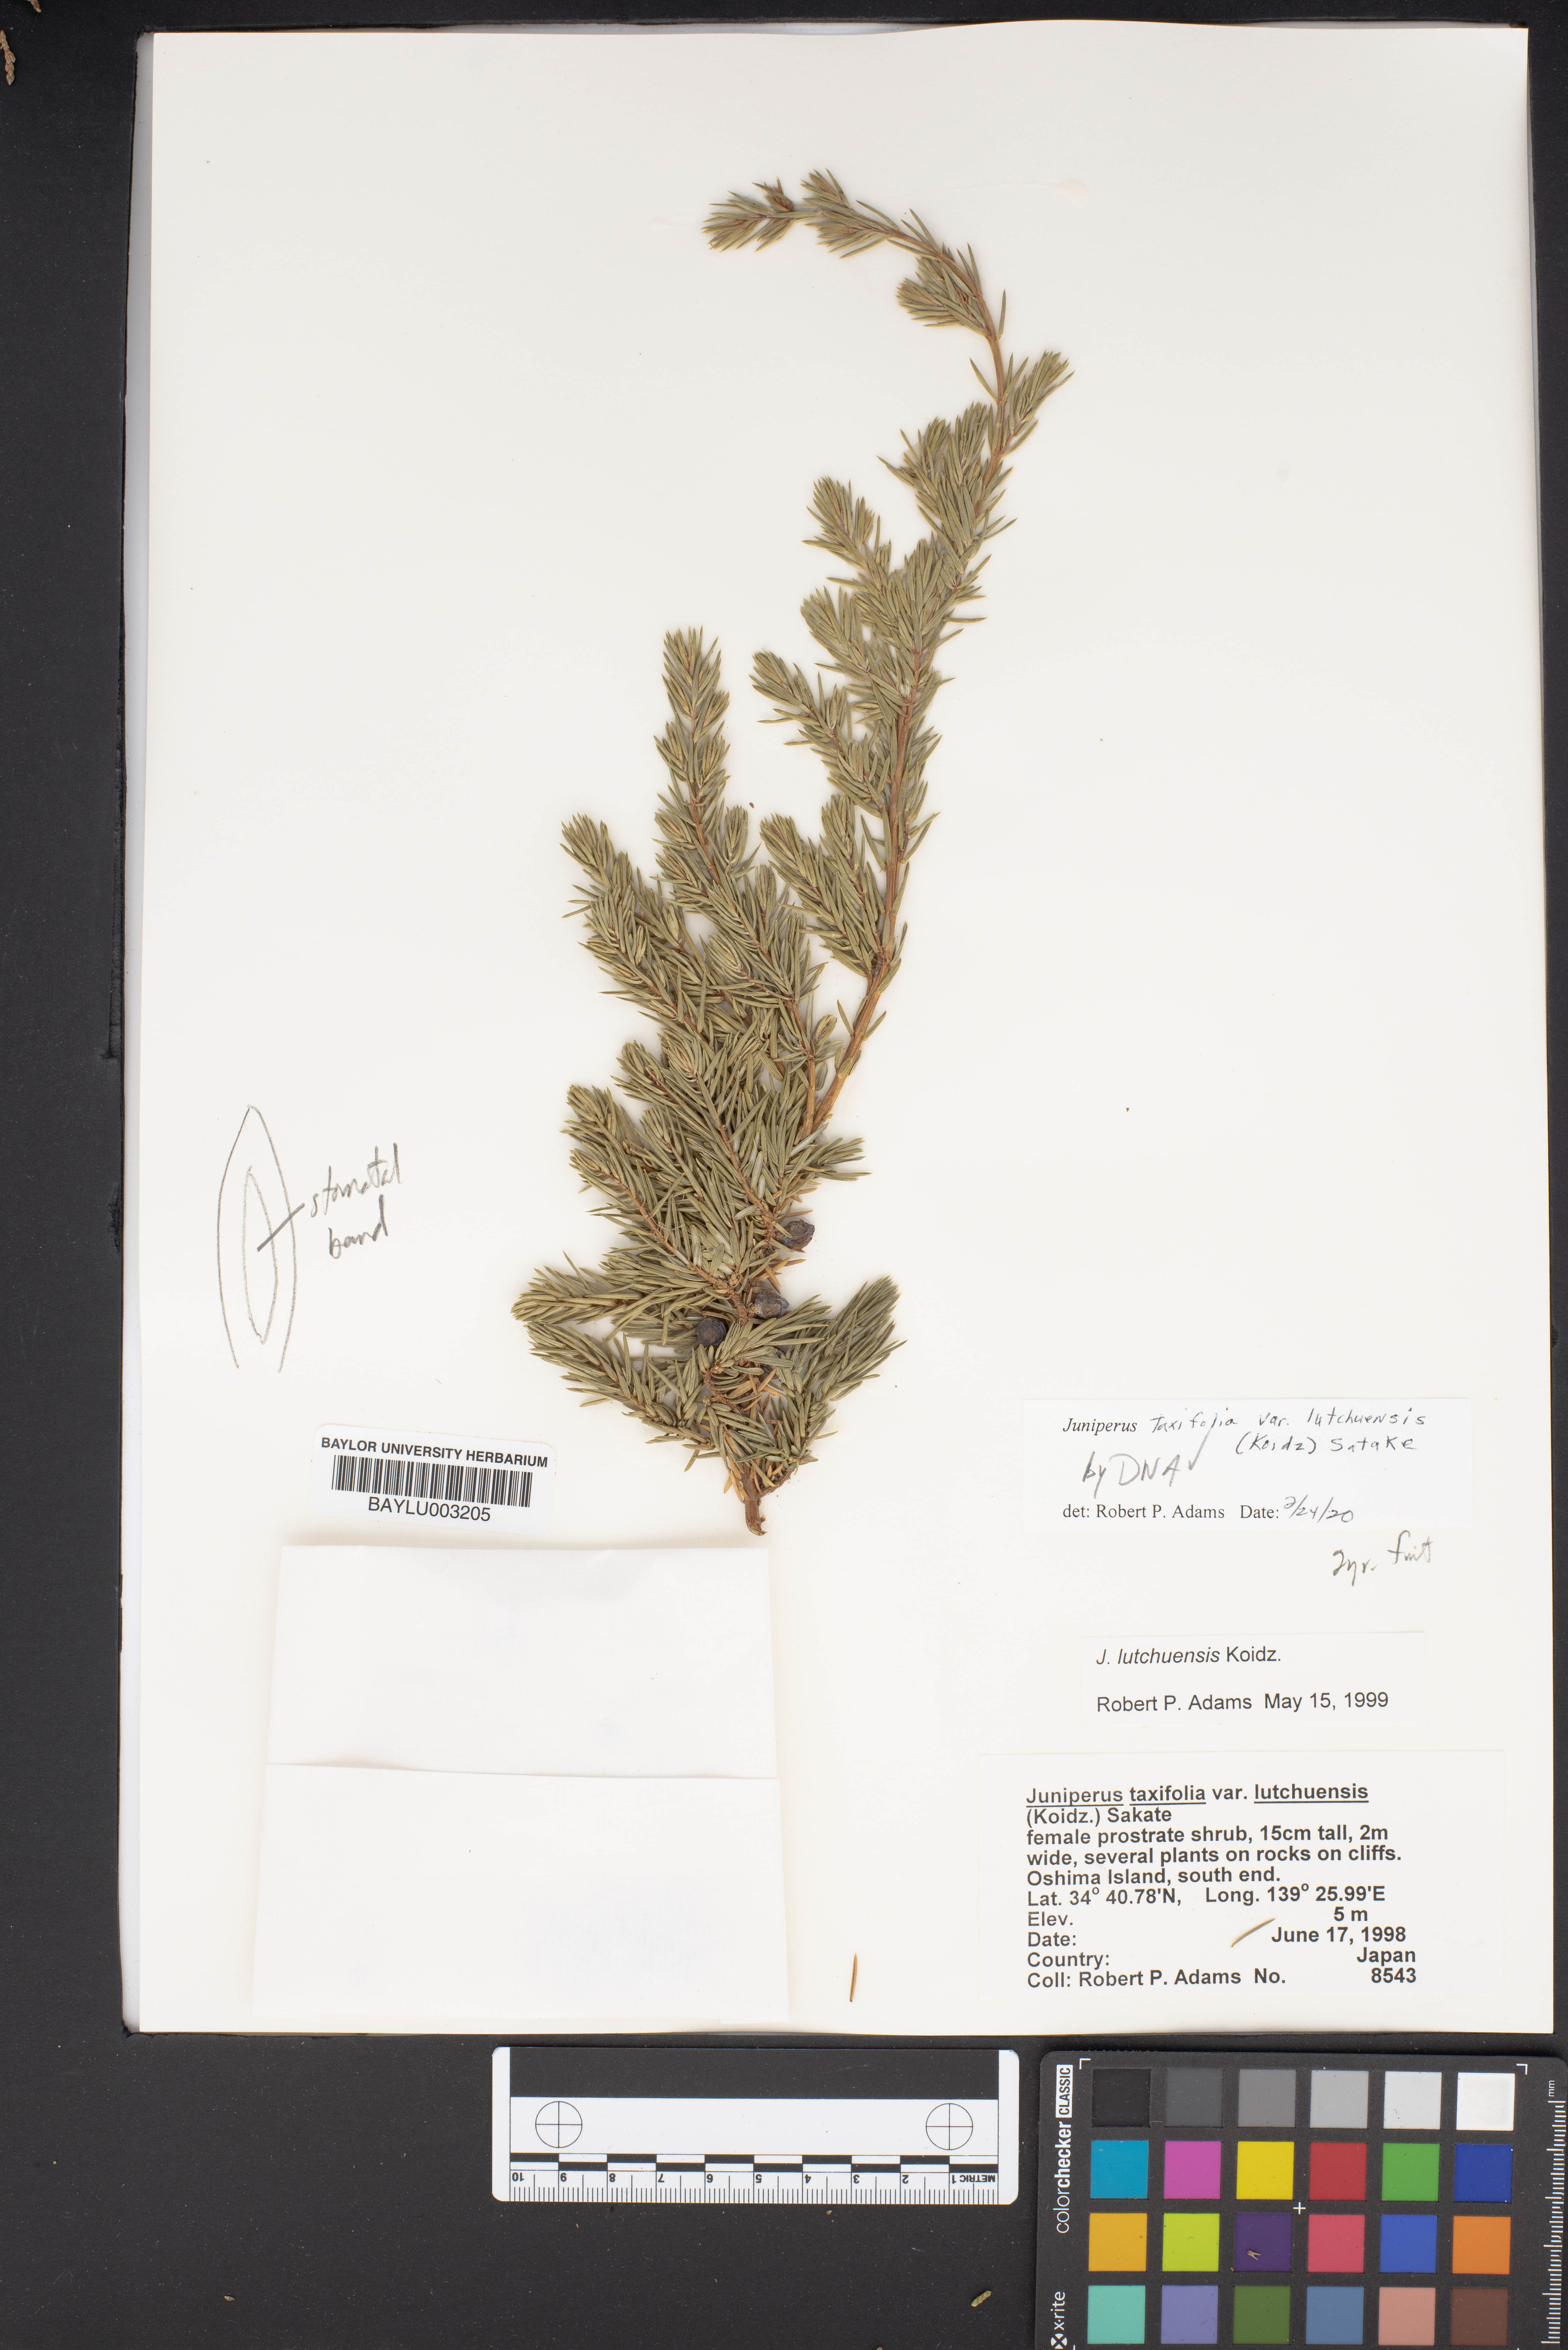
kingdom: Plantae
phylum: Tracheophyta
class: Pinopsida
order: Pinales
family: Cupressaceae
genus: Juniperus
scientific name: Juniperus taxifolia
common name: Fitcheisi
